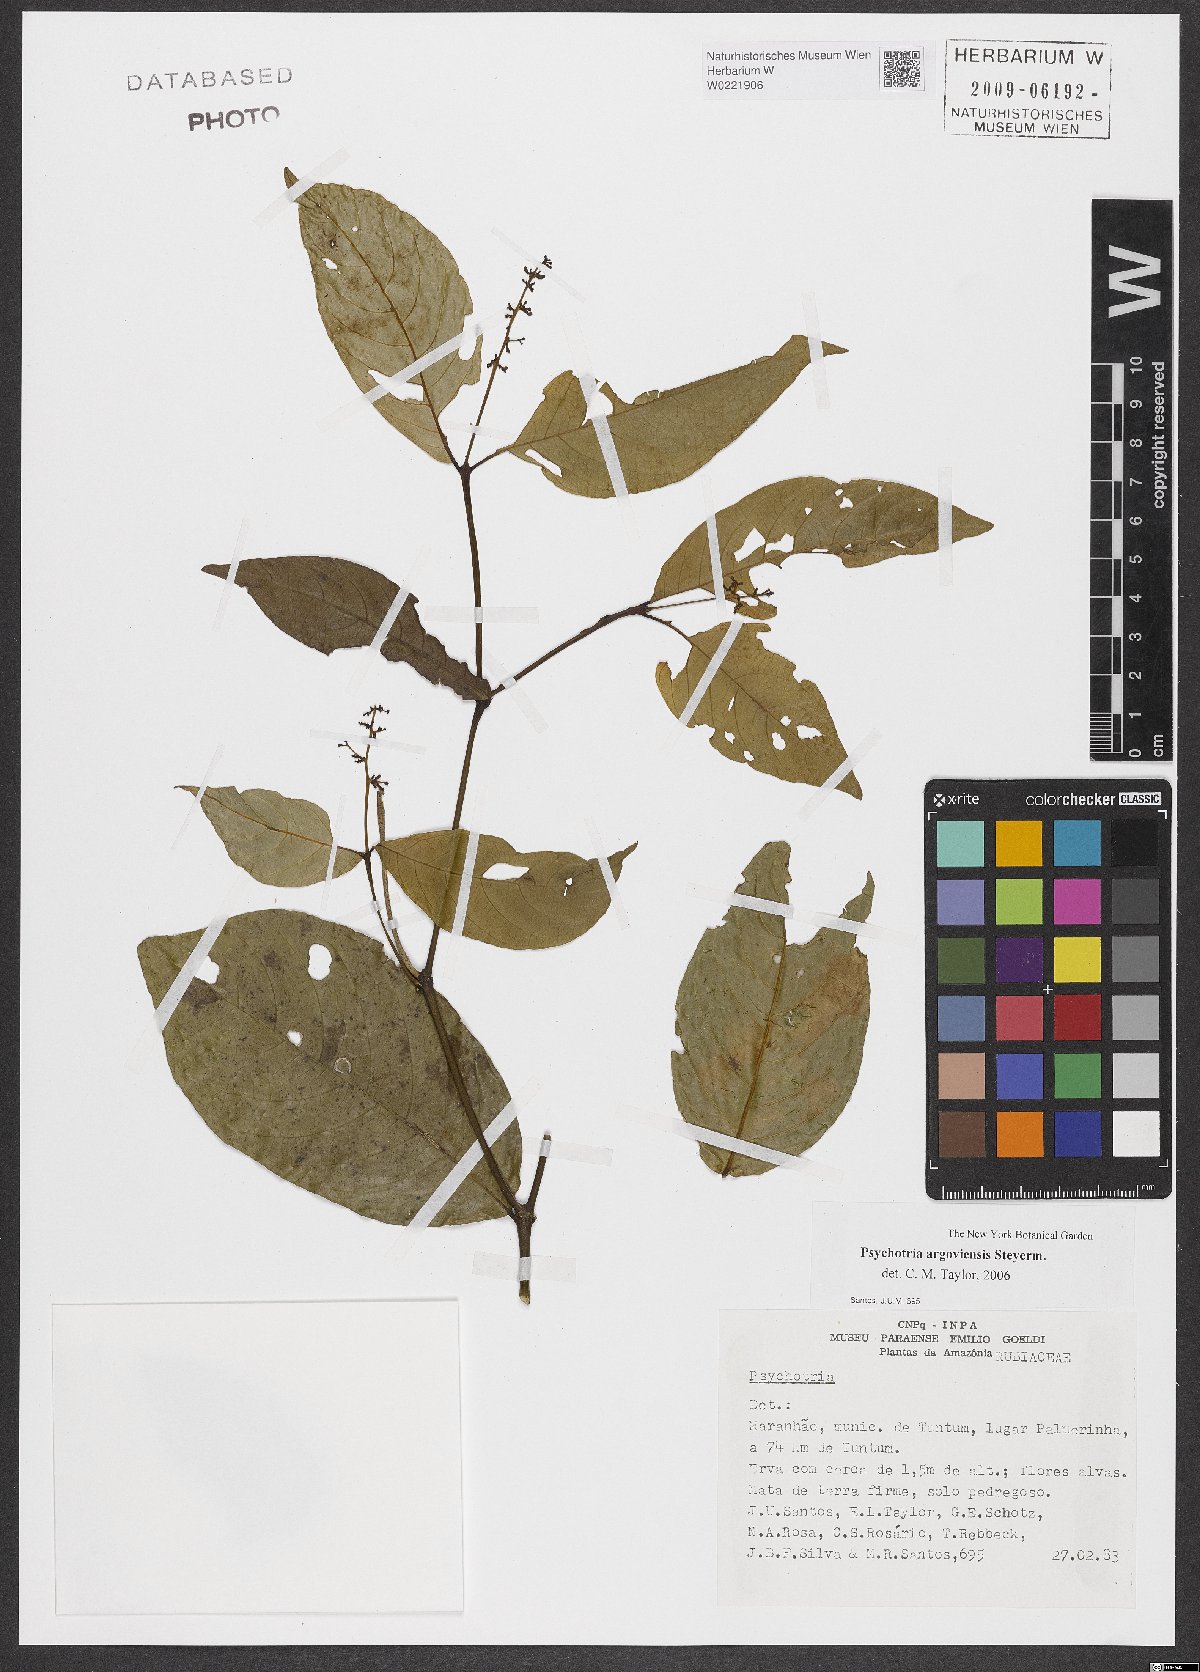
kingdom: Plantae
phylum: Tracheophyta
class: Magnoliopsida
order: Gentianales
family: Rubiaceae
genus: Palicourea
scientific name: Palicourea goyazensis
